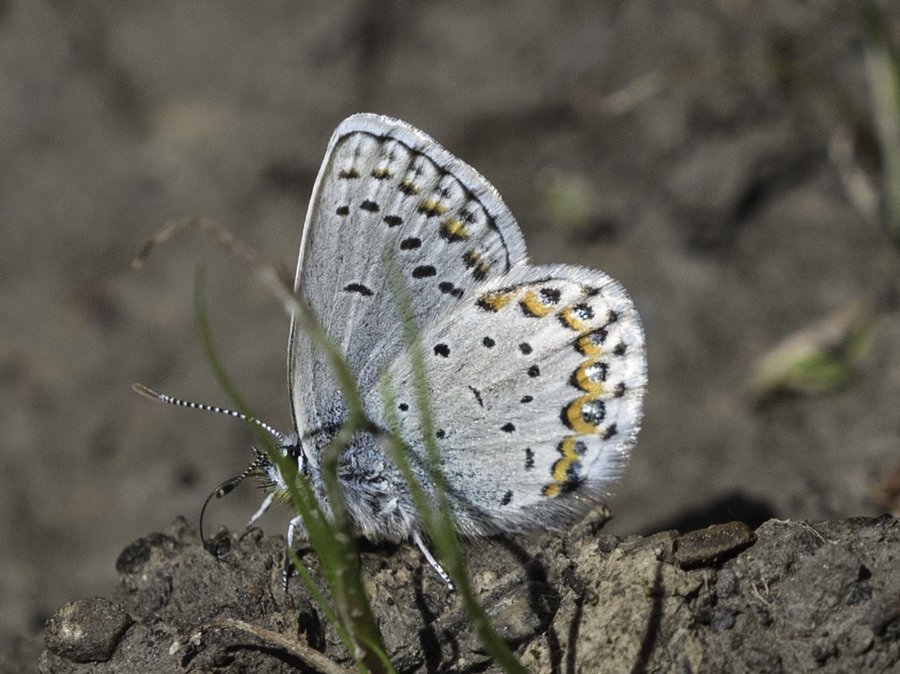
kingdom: Animalia
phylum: Arthropoda
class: Insecta
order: Lepidoptera
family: Lycaenidae
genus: Lycaeides
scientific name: Lycaeides idas
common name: Northern Blue
